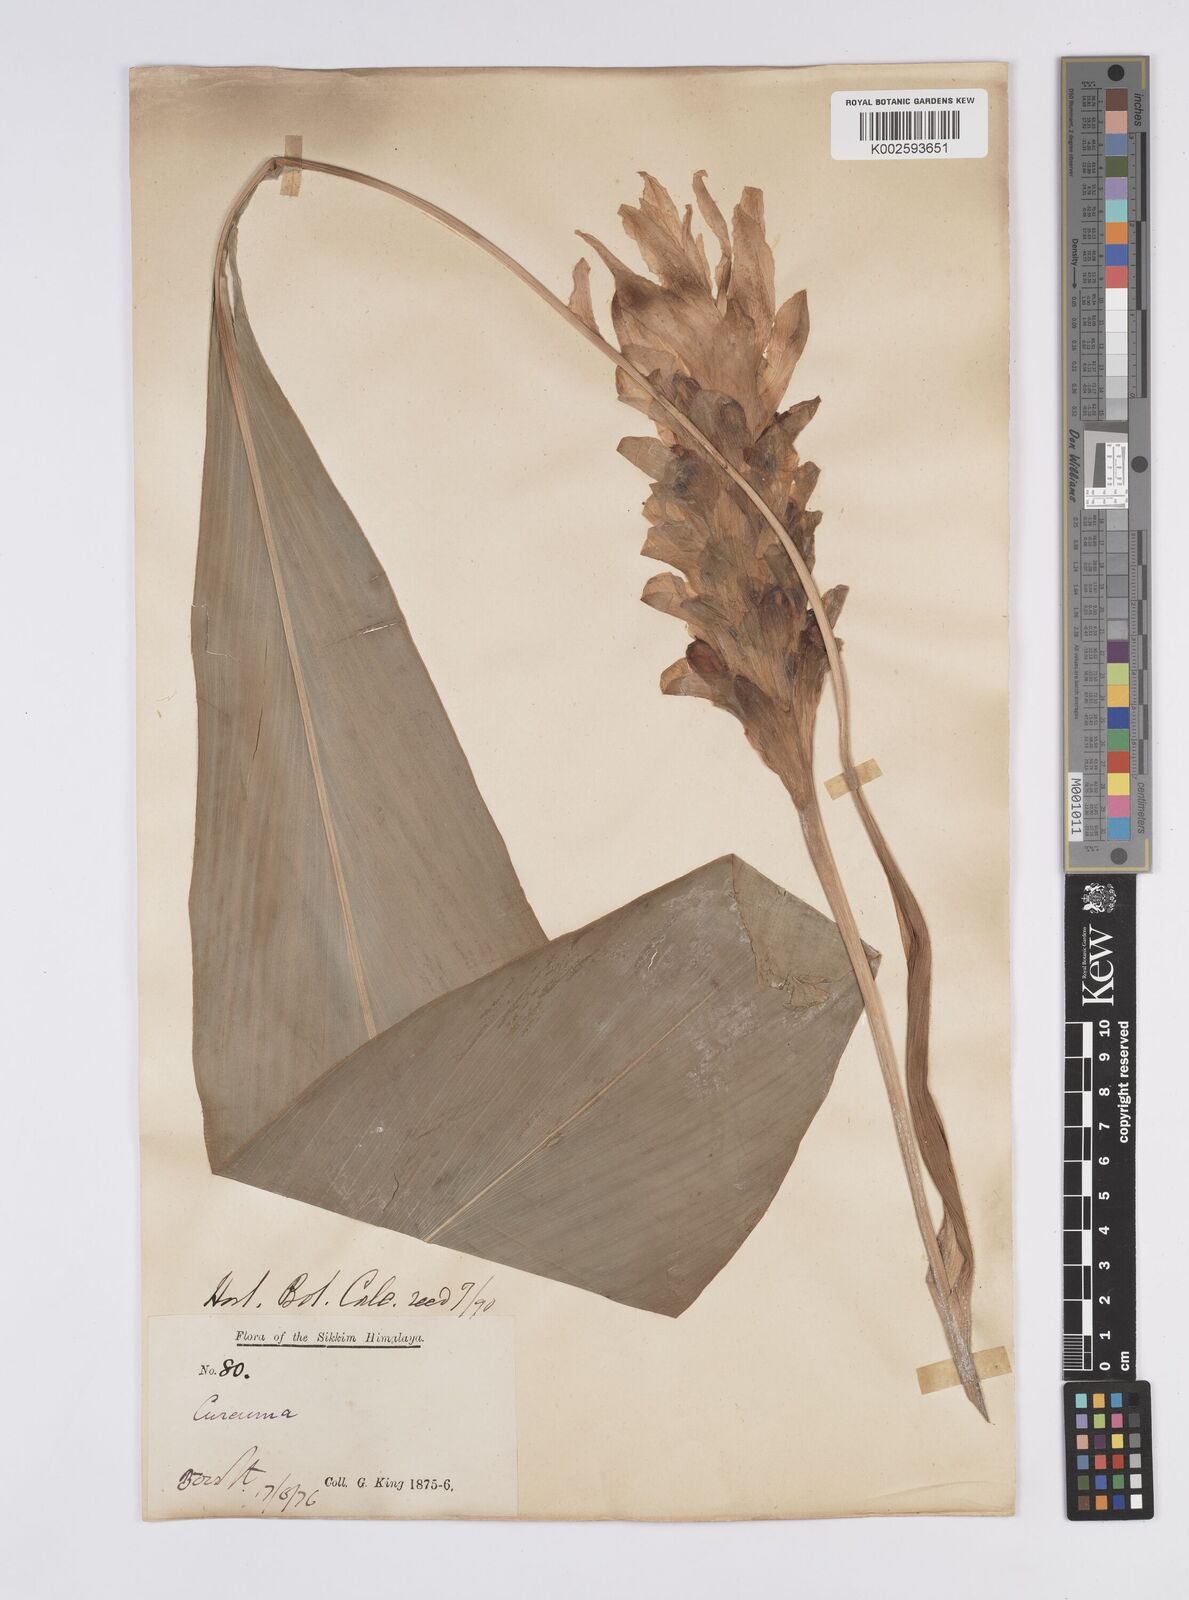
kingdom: Plantae
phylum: Tracheophyta
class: Liliopsida
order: Zingiberales
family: Zingiberaceae
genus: Curcuma
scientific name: Curcuma longa
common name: Turmeric
